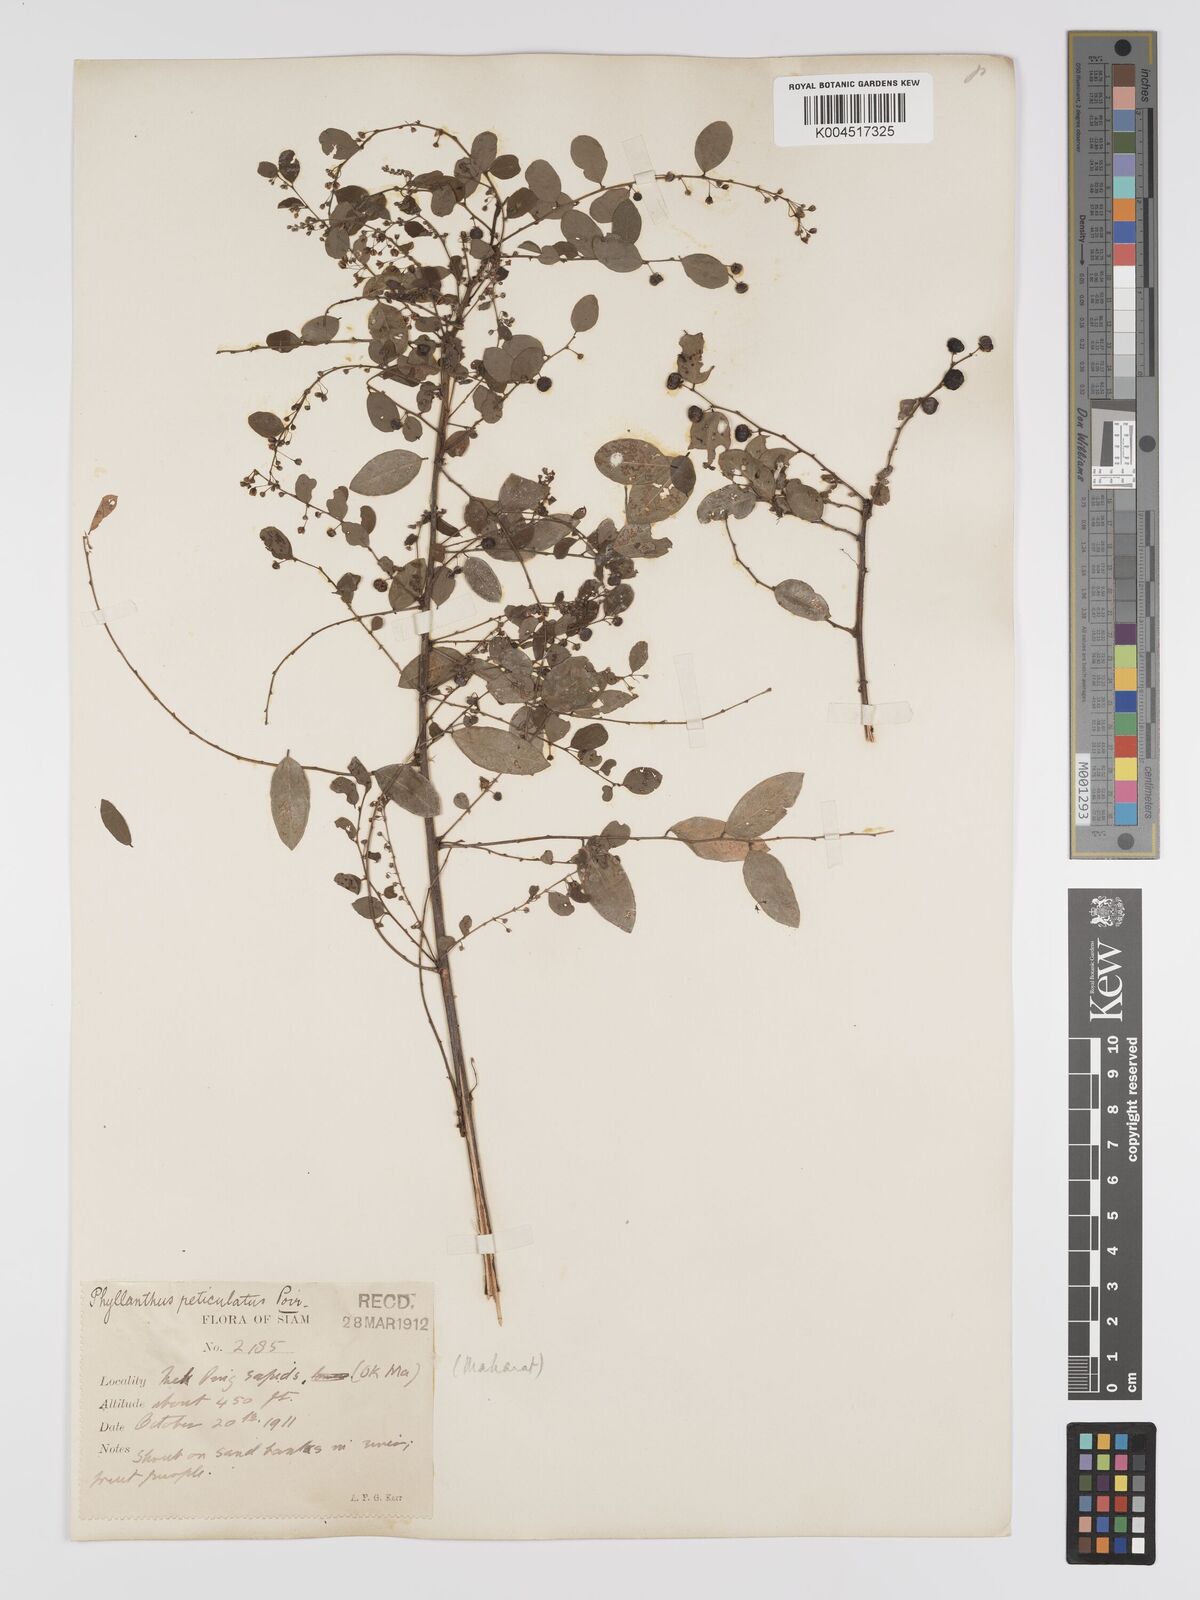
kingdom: Plantae
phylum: Tracheophyta
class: Magnoliopsida
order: Malpighiales
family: Phyllanthaceae
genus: Phyllanthus
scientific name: Phyllanthus reticulatus
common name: Potato bush
